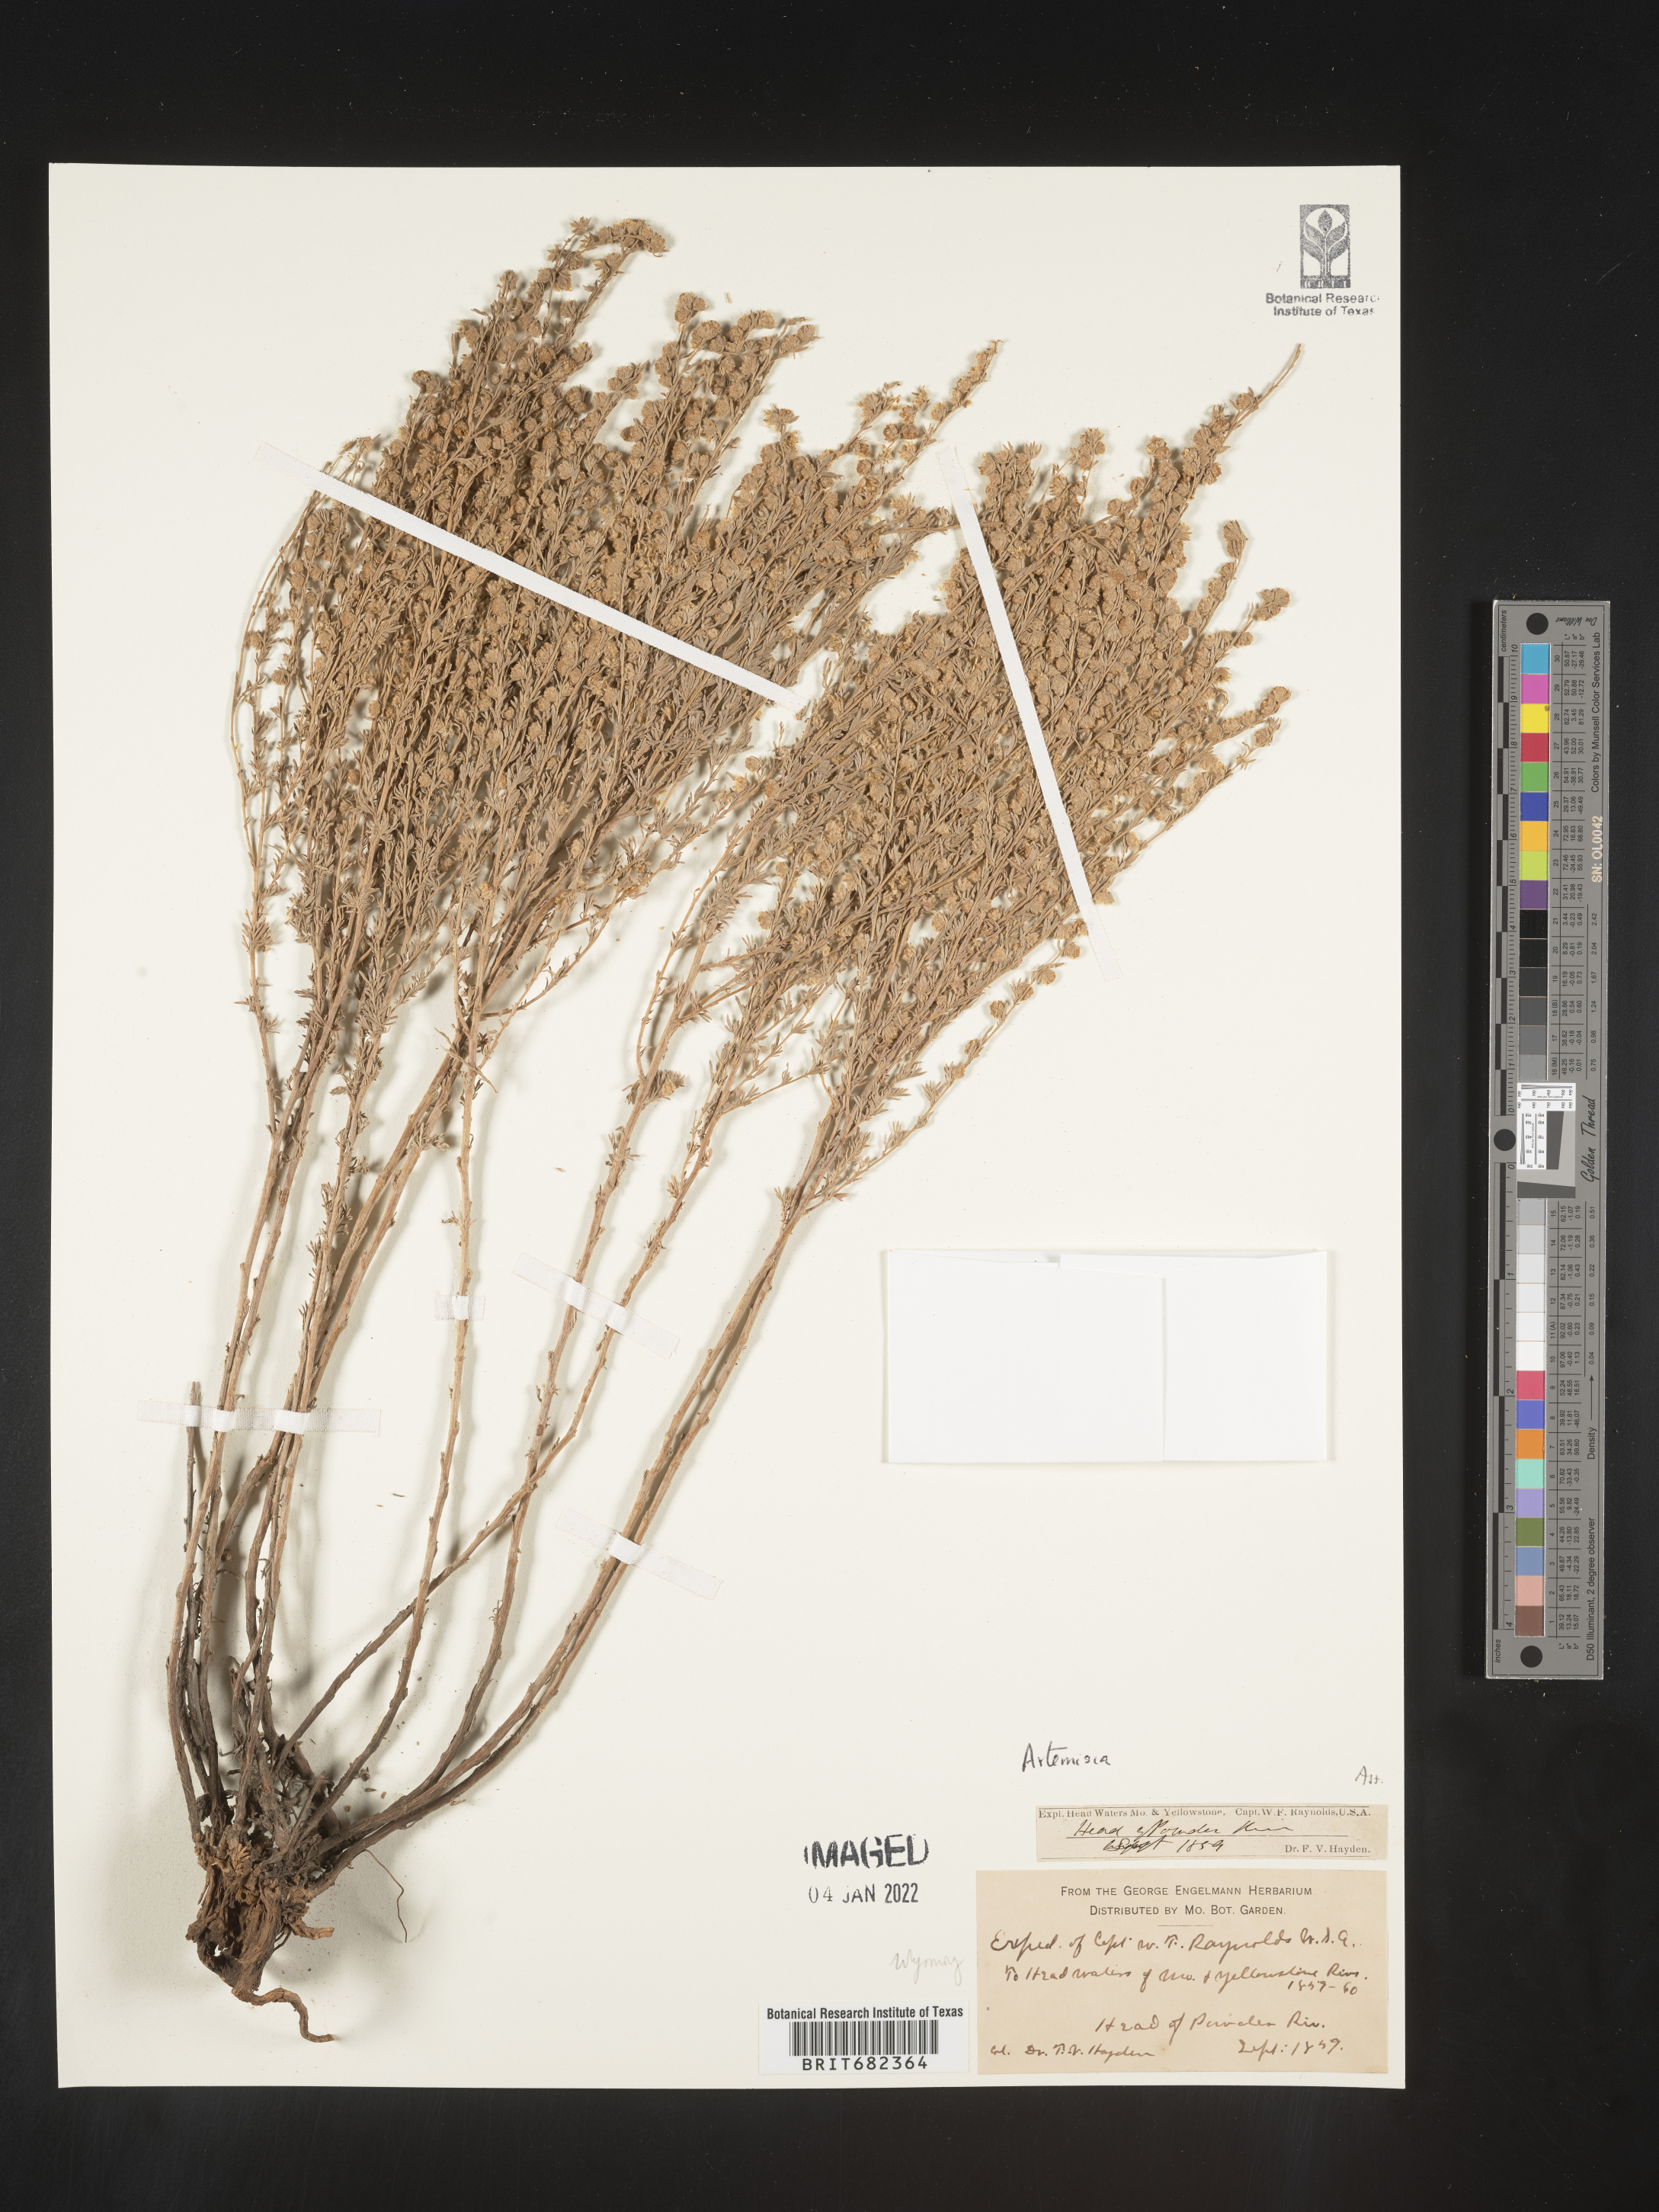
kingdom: Plantae
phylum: Tracheophyta
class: Magnoliopsida
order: Asterales
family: Asteraceae
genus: Artemisia
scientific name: Artemisia
